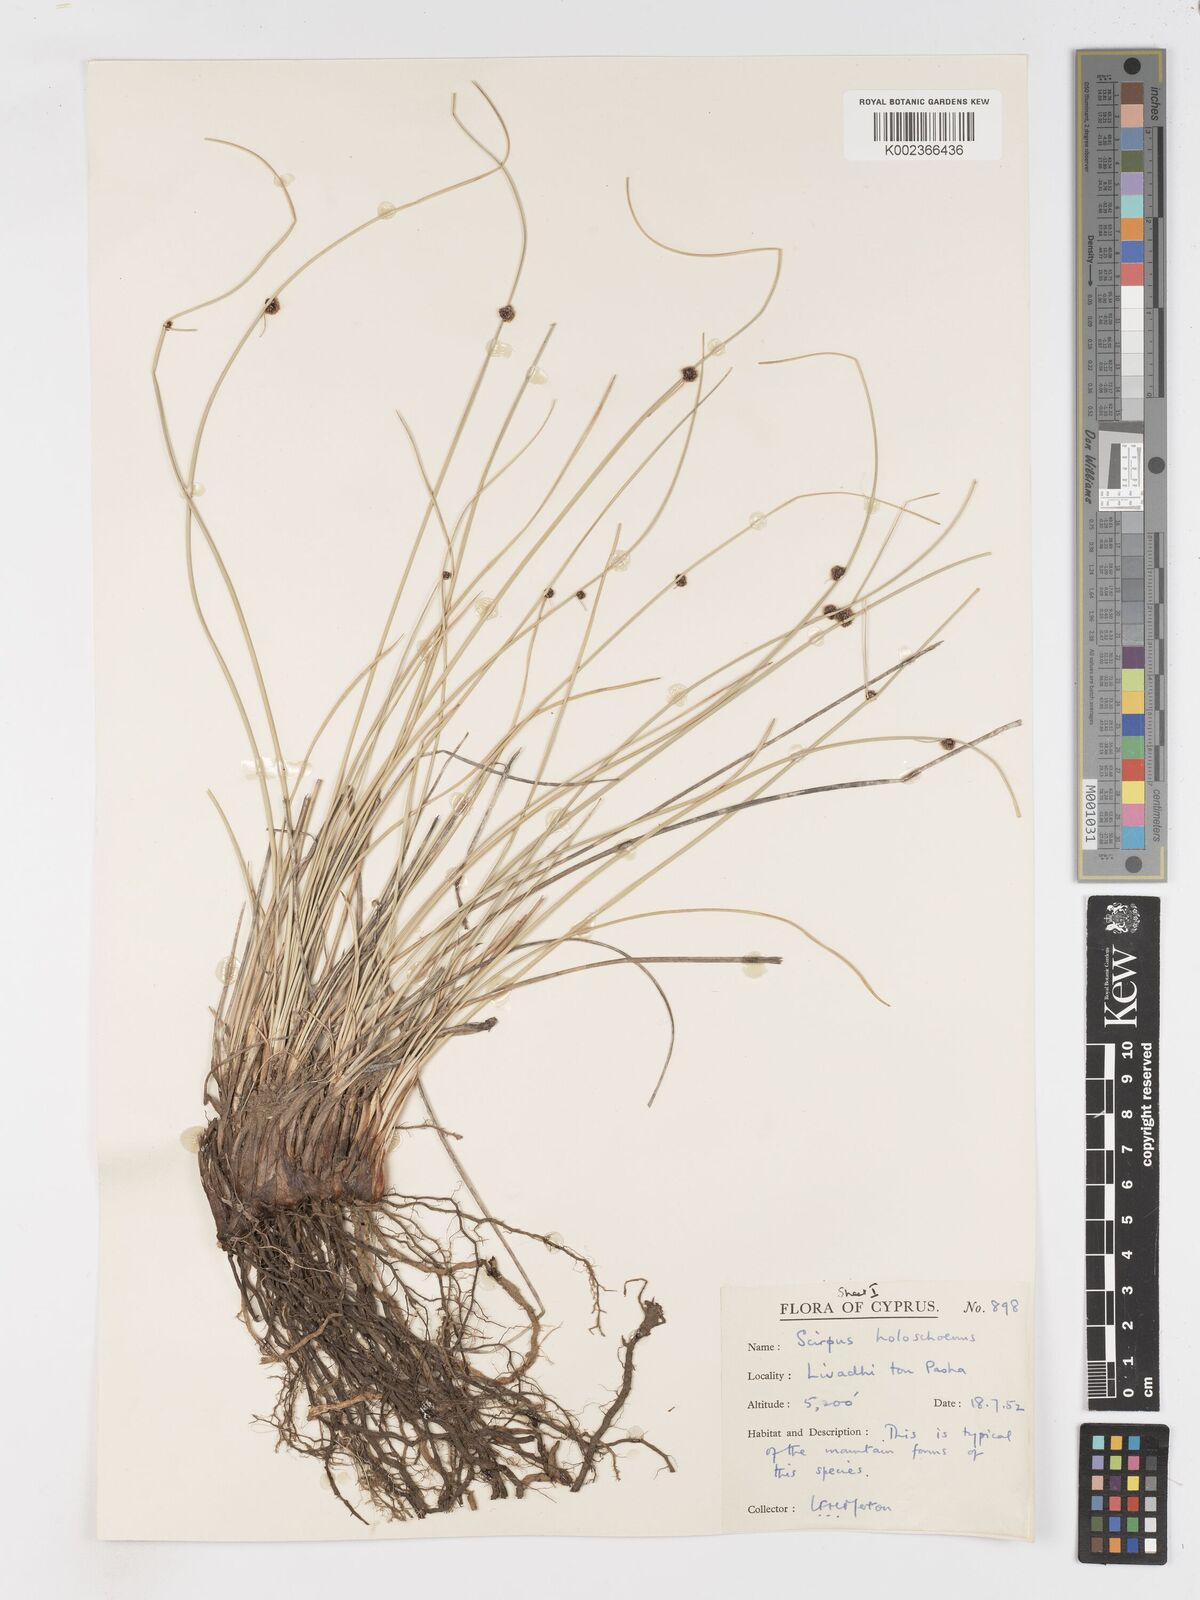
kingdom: Plantae
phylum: Tracheophyta
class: Liliopsida
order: Poales
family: Cyperaceae
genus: Scirpoides
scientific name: Scirpoides holoschoenus
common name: Round-headed club-rush
